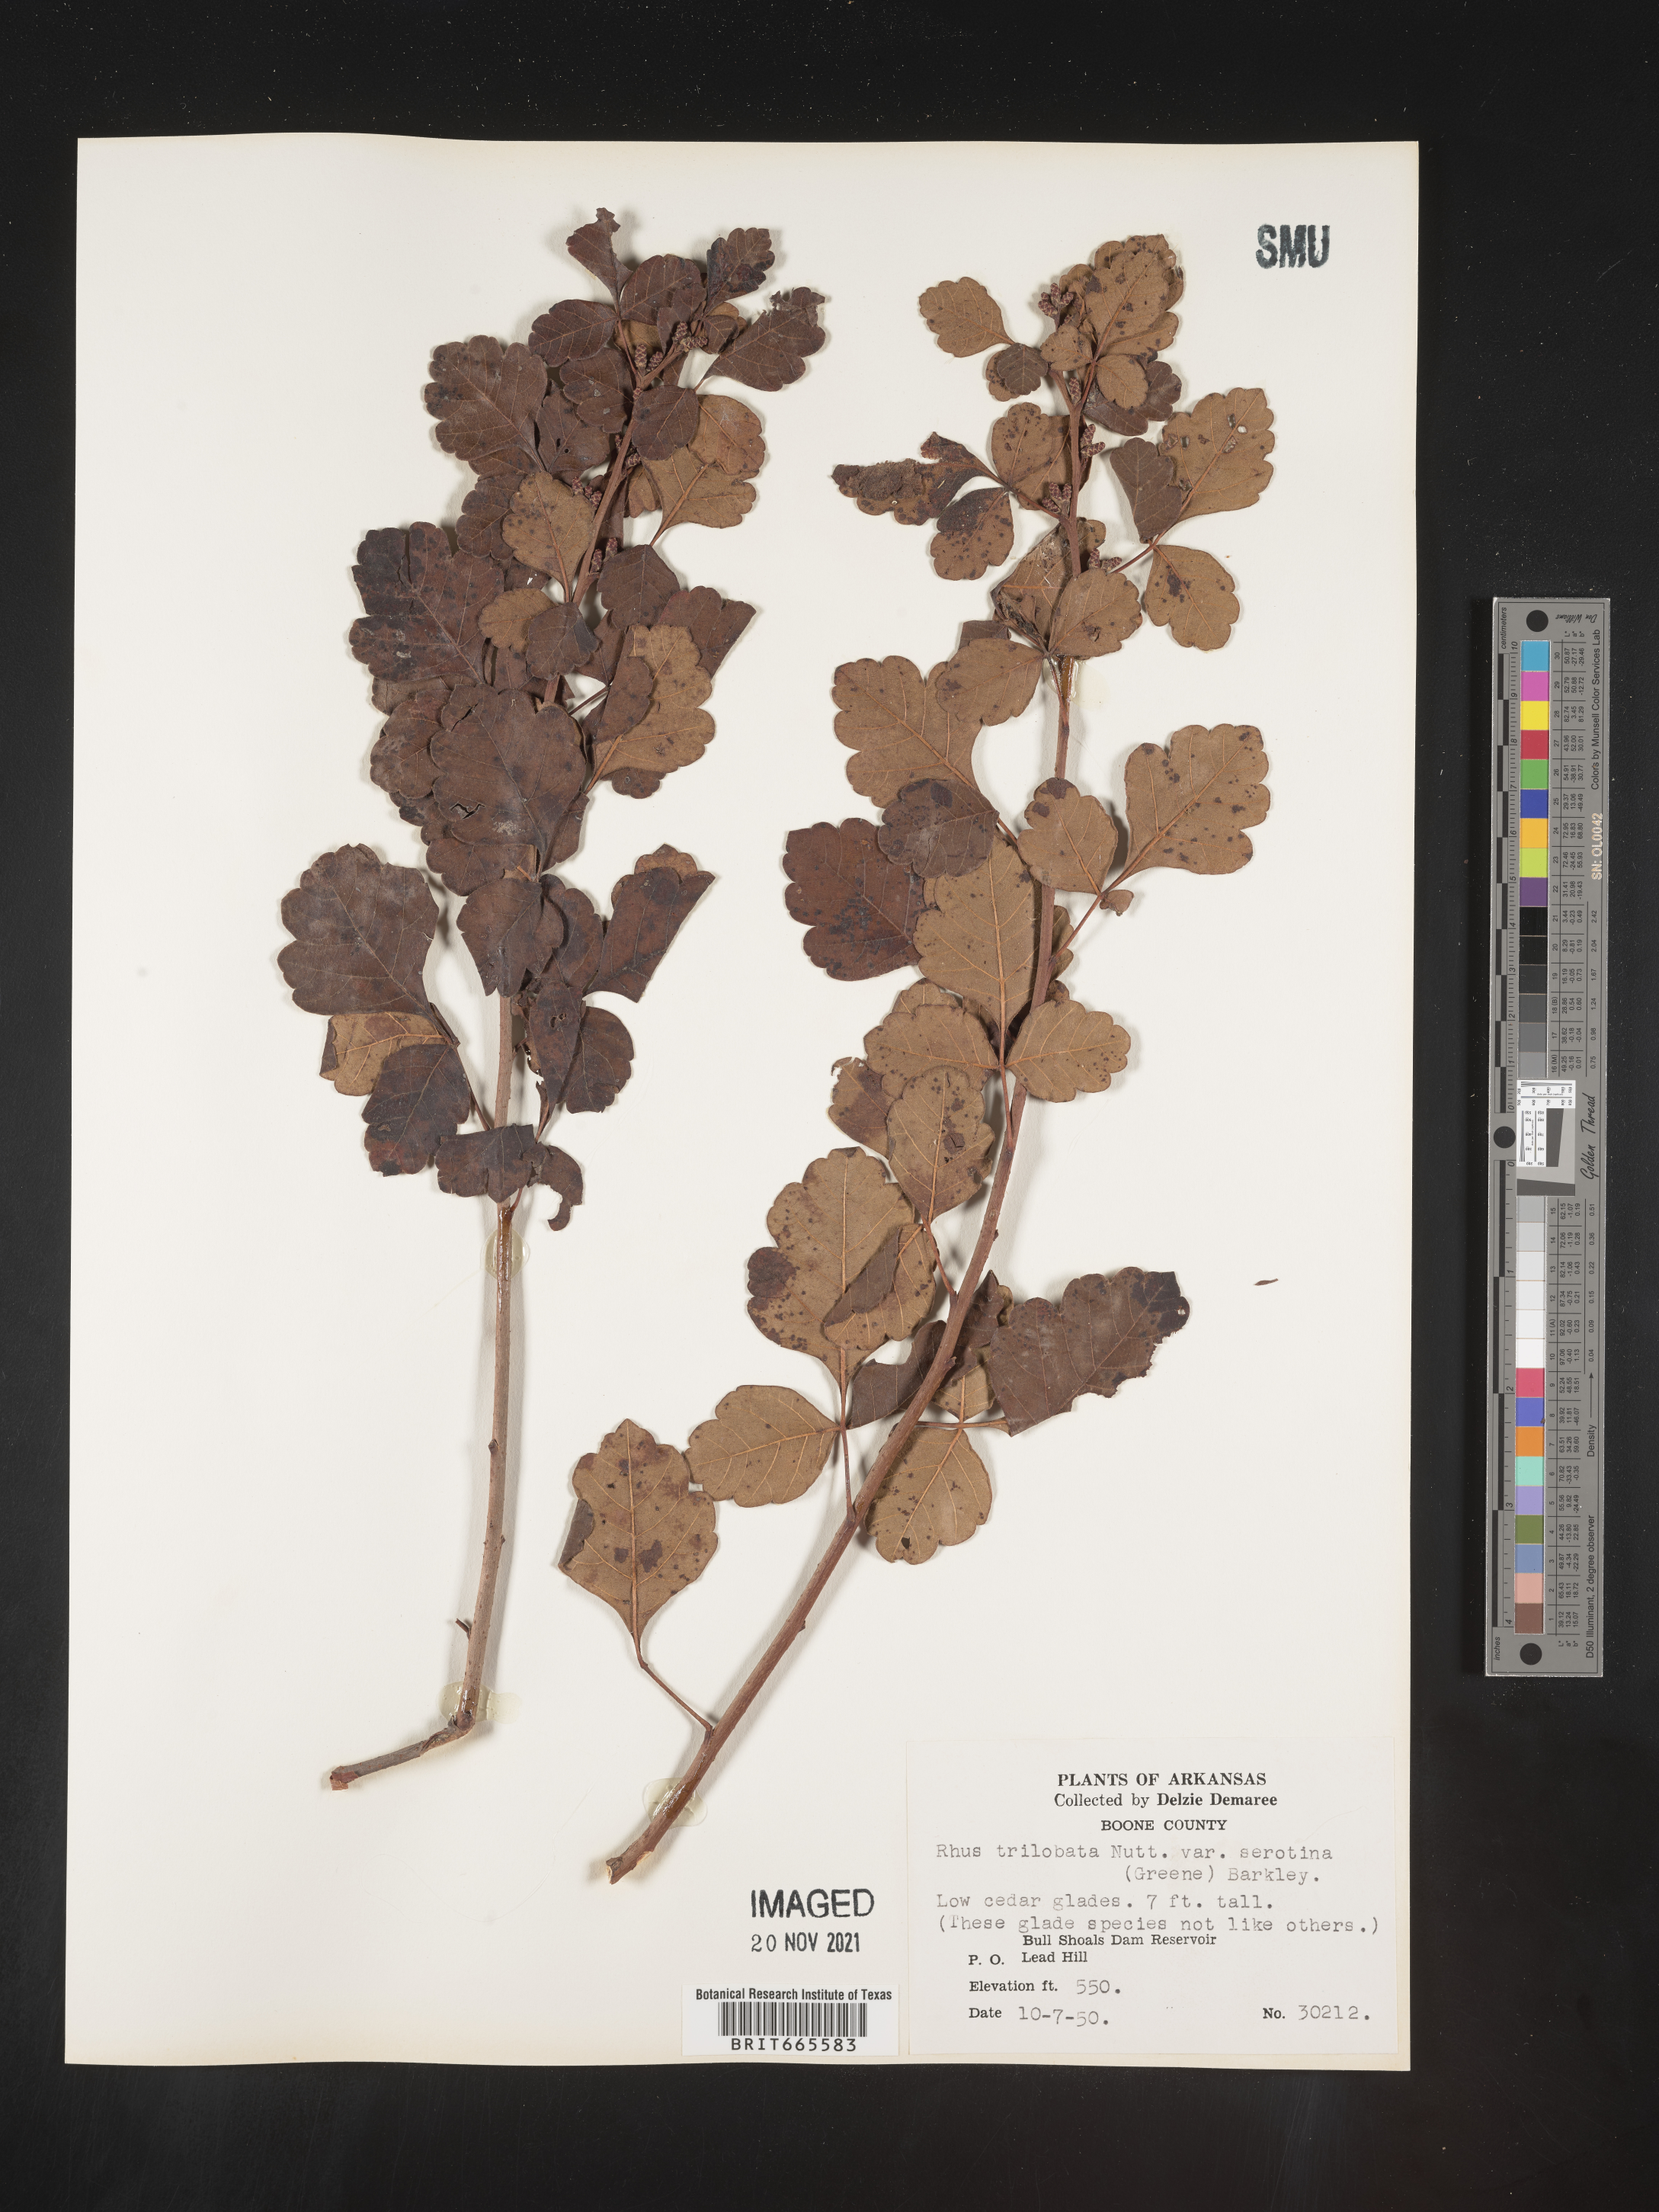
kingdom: Plantae
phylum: Tracheophyta
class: Magnoliopsida
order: Sapindales
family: Anacardiaceae
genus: Rhus
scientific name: Rhus aromatica
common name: Aromatic sumac
